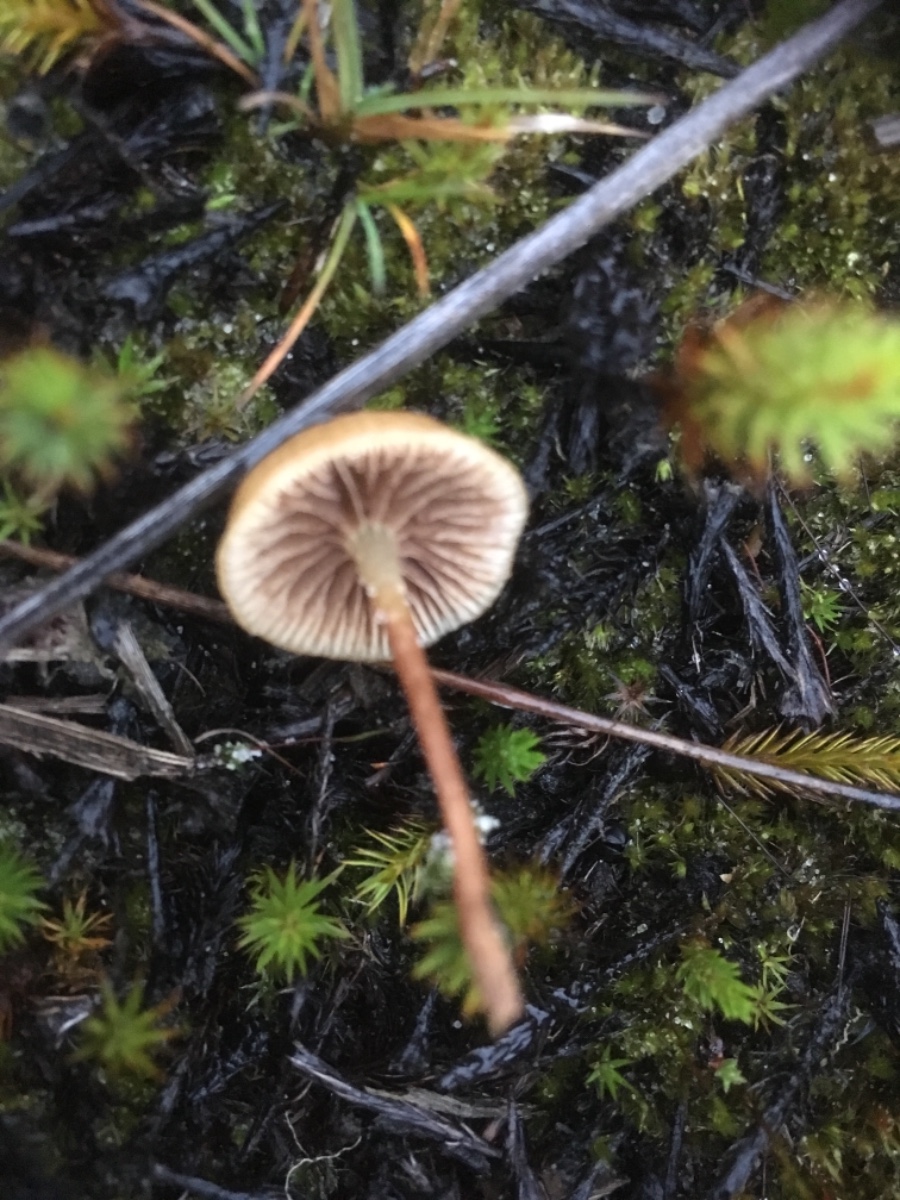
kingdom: Fungi
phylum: Basidiomycota
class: Agaricomycetes
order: Agaricales
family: Strophariaceae
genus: Hypholoma
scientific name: Hypholoma
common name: svovlhat
